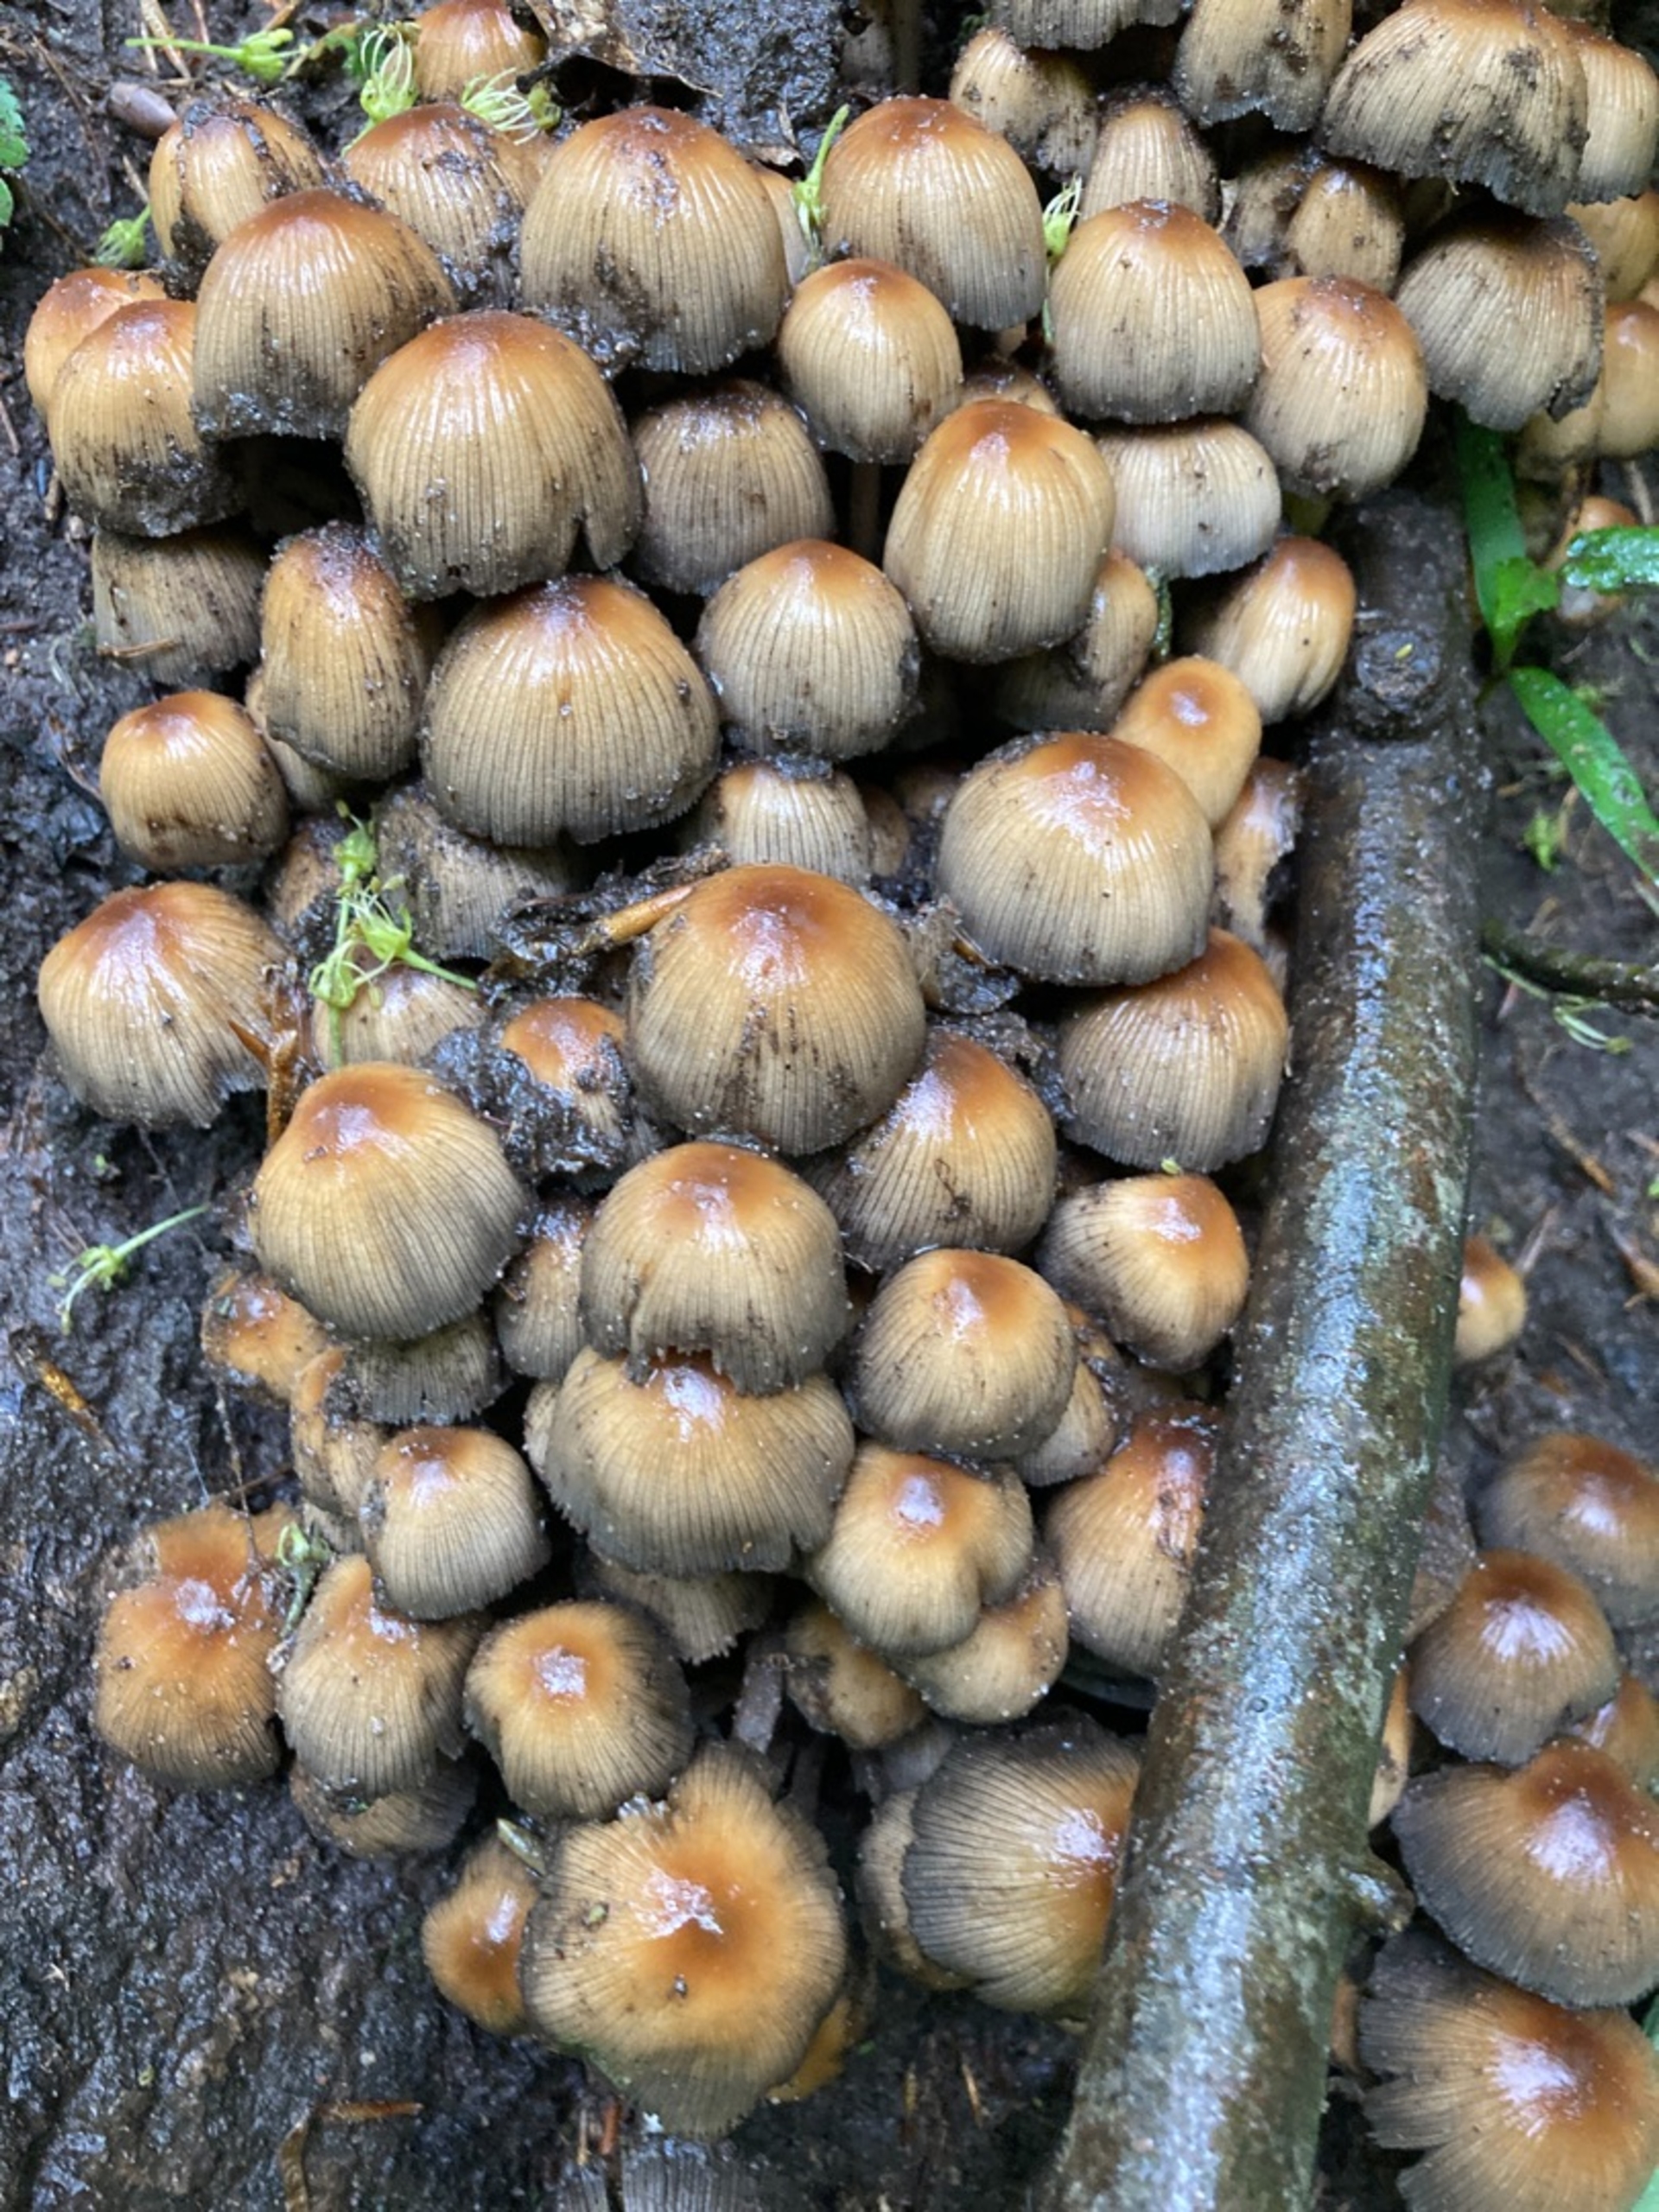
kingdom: Fungi
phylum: Basidiomycota
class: Agaricomycetes
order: Agaricales
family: Psathyrellaceae
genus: Coprinellus
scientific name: Coprinellus micaceus
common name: Glimmer-blækhat
